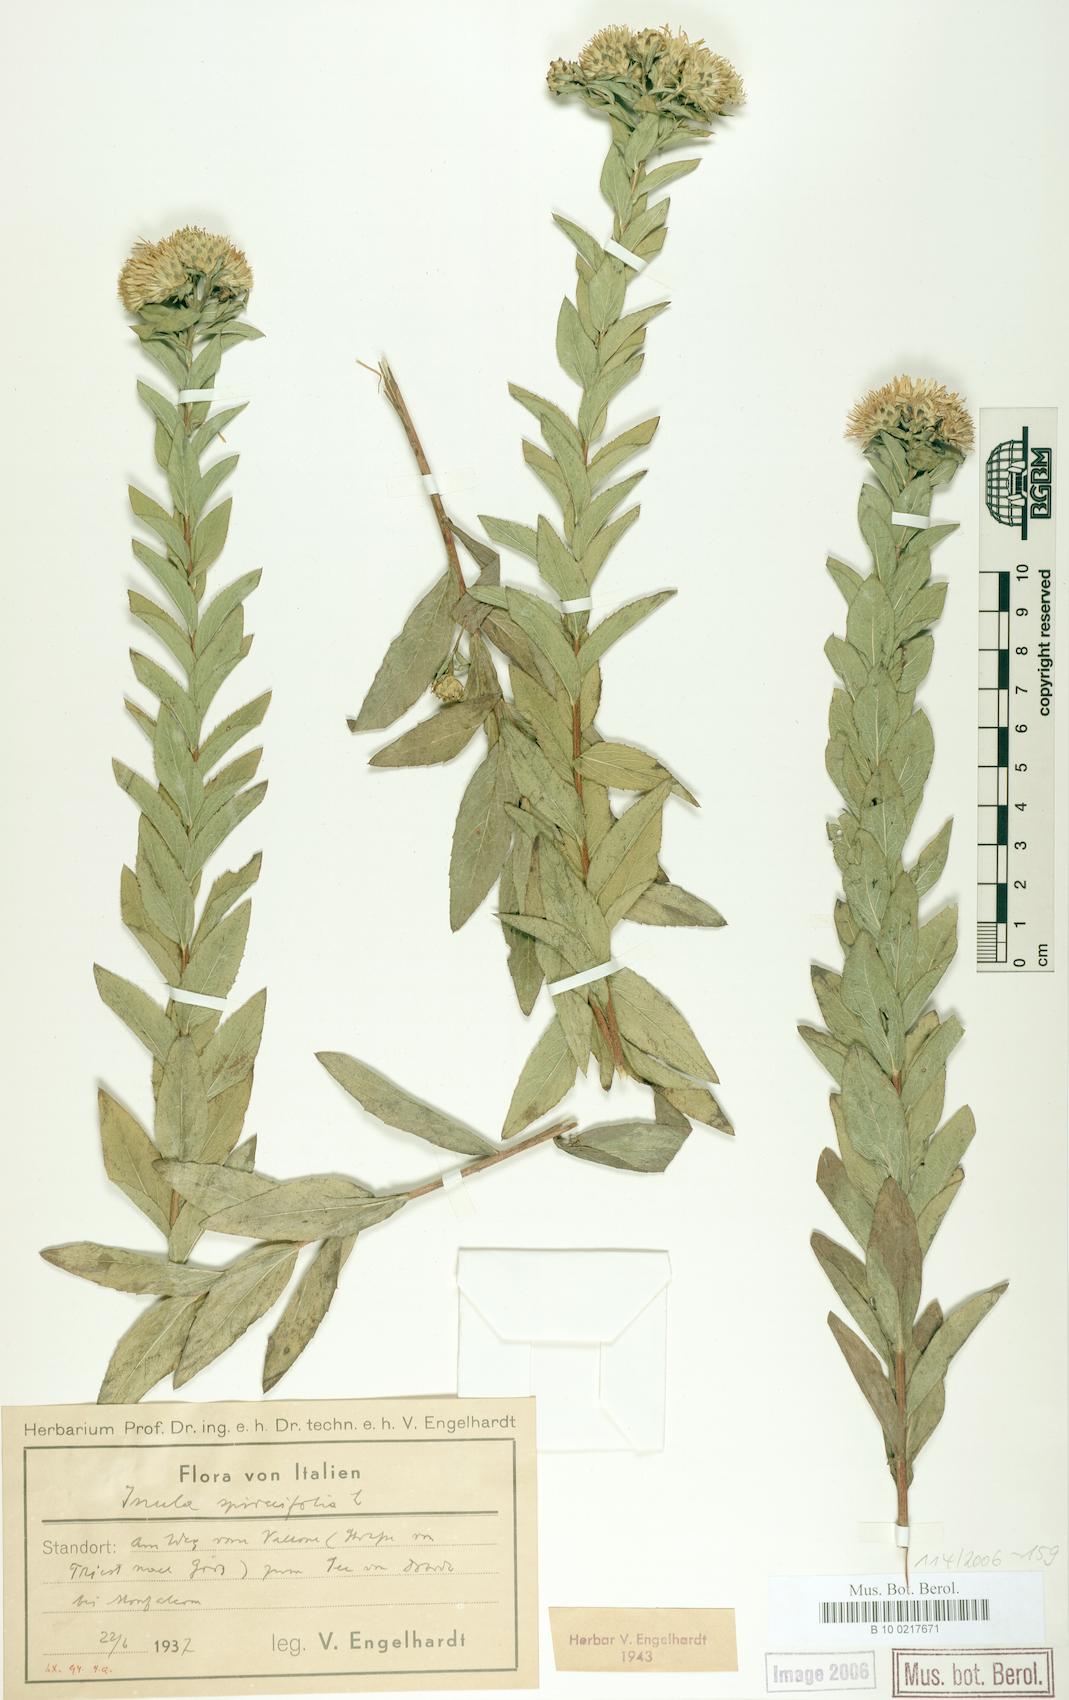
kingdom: Plantae
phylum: Tracheophyta
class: Magnoliopsida
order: Asterales
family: Asteraceae
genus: Pentanema
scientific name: Pentanema spiraeifolium
